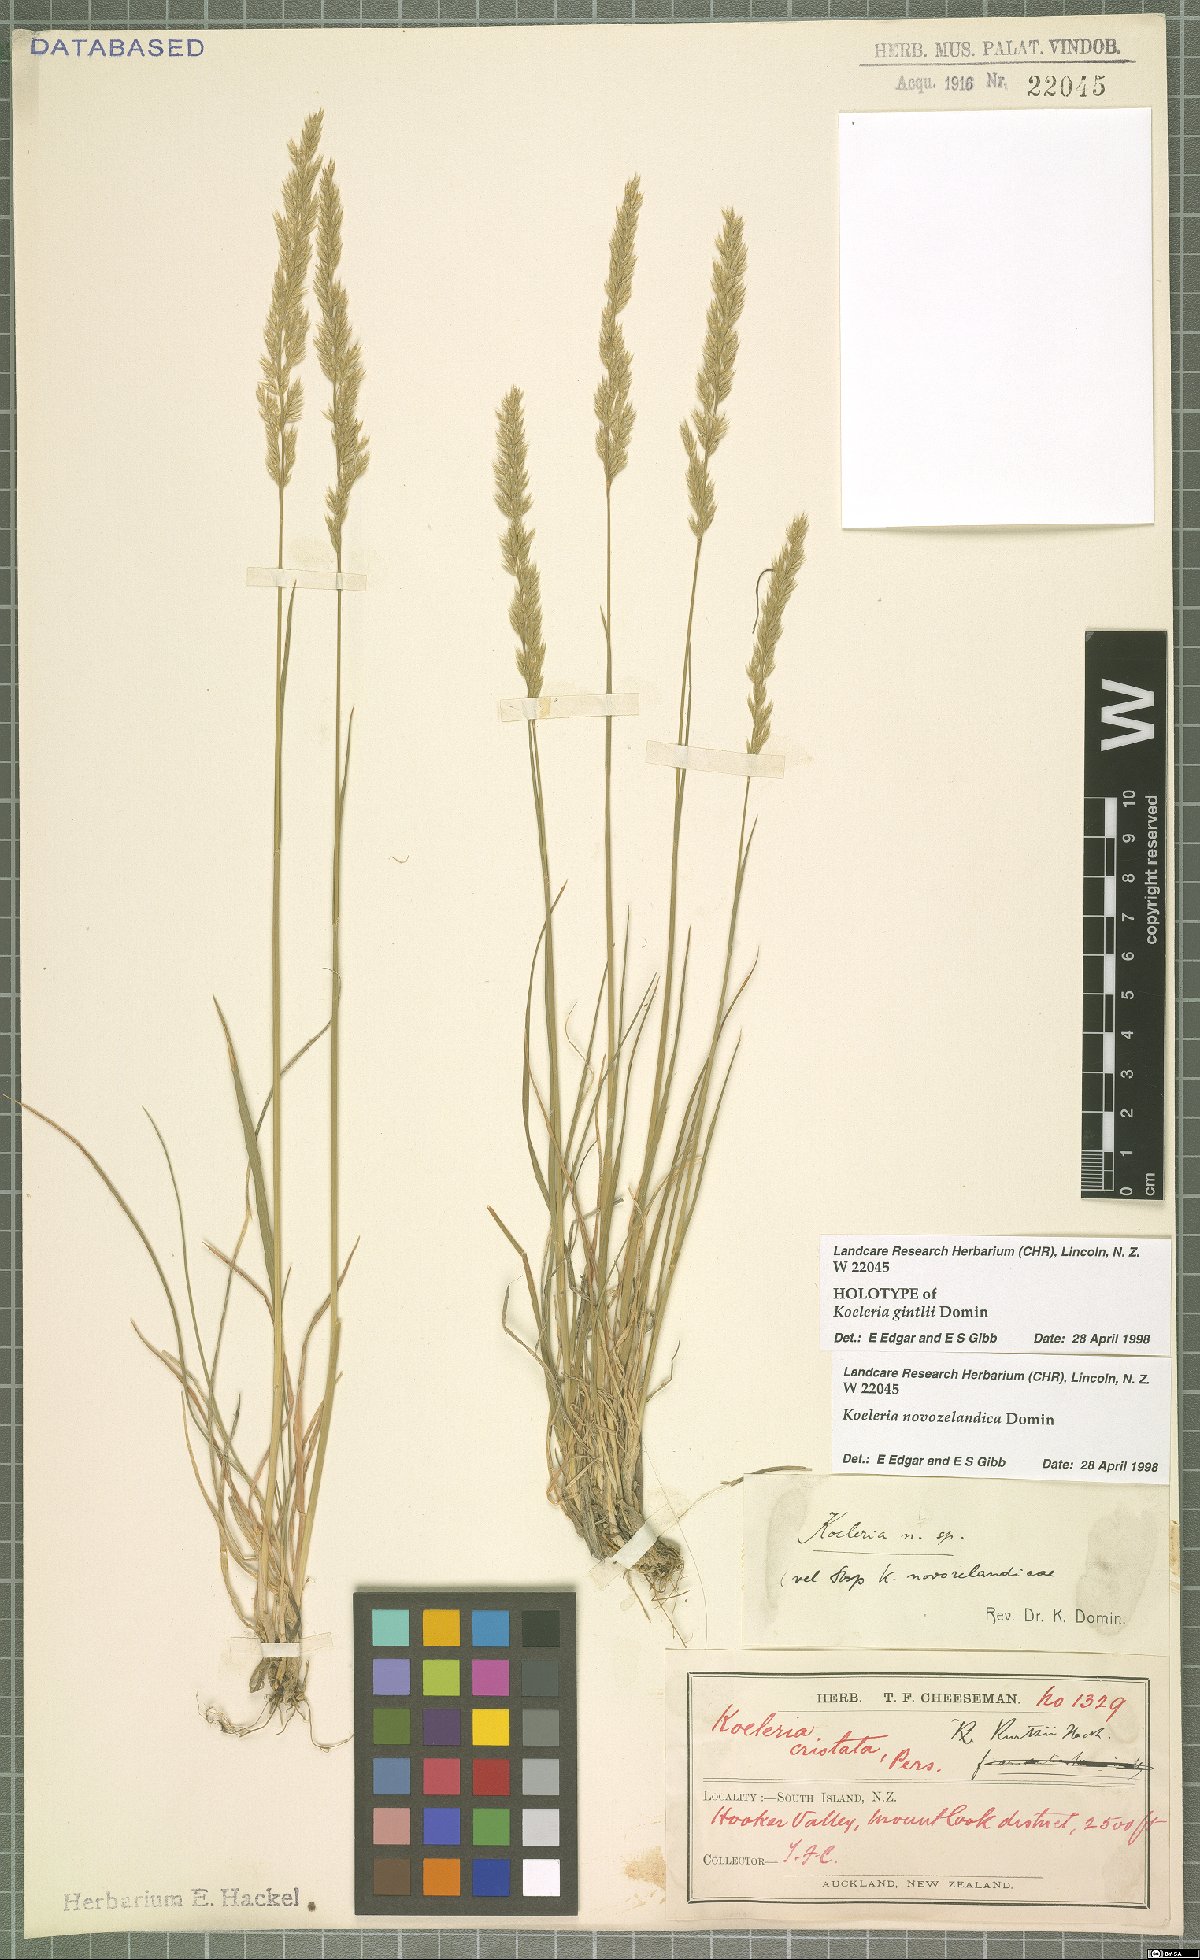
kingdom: Plantae
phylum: Tracheophyta
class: Liliopsida
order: Poales
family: Poaceae
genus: Koeleria
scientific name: Koeleria novozelandica
